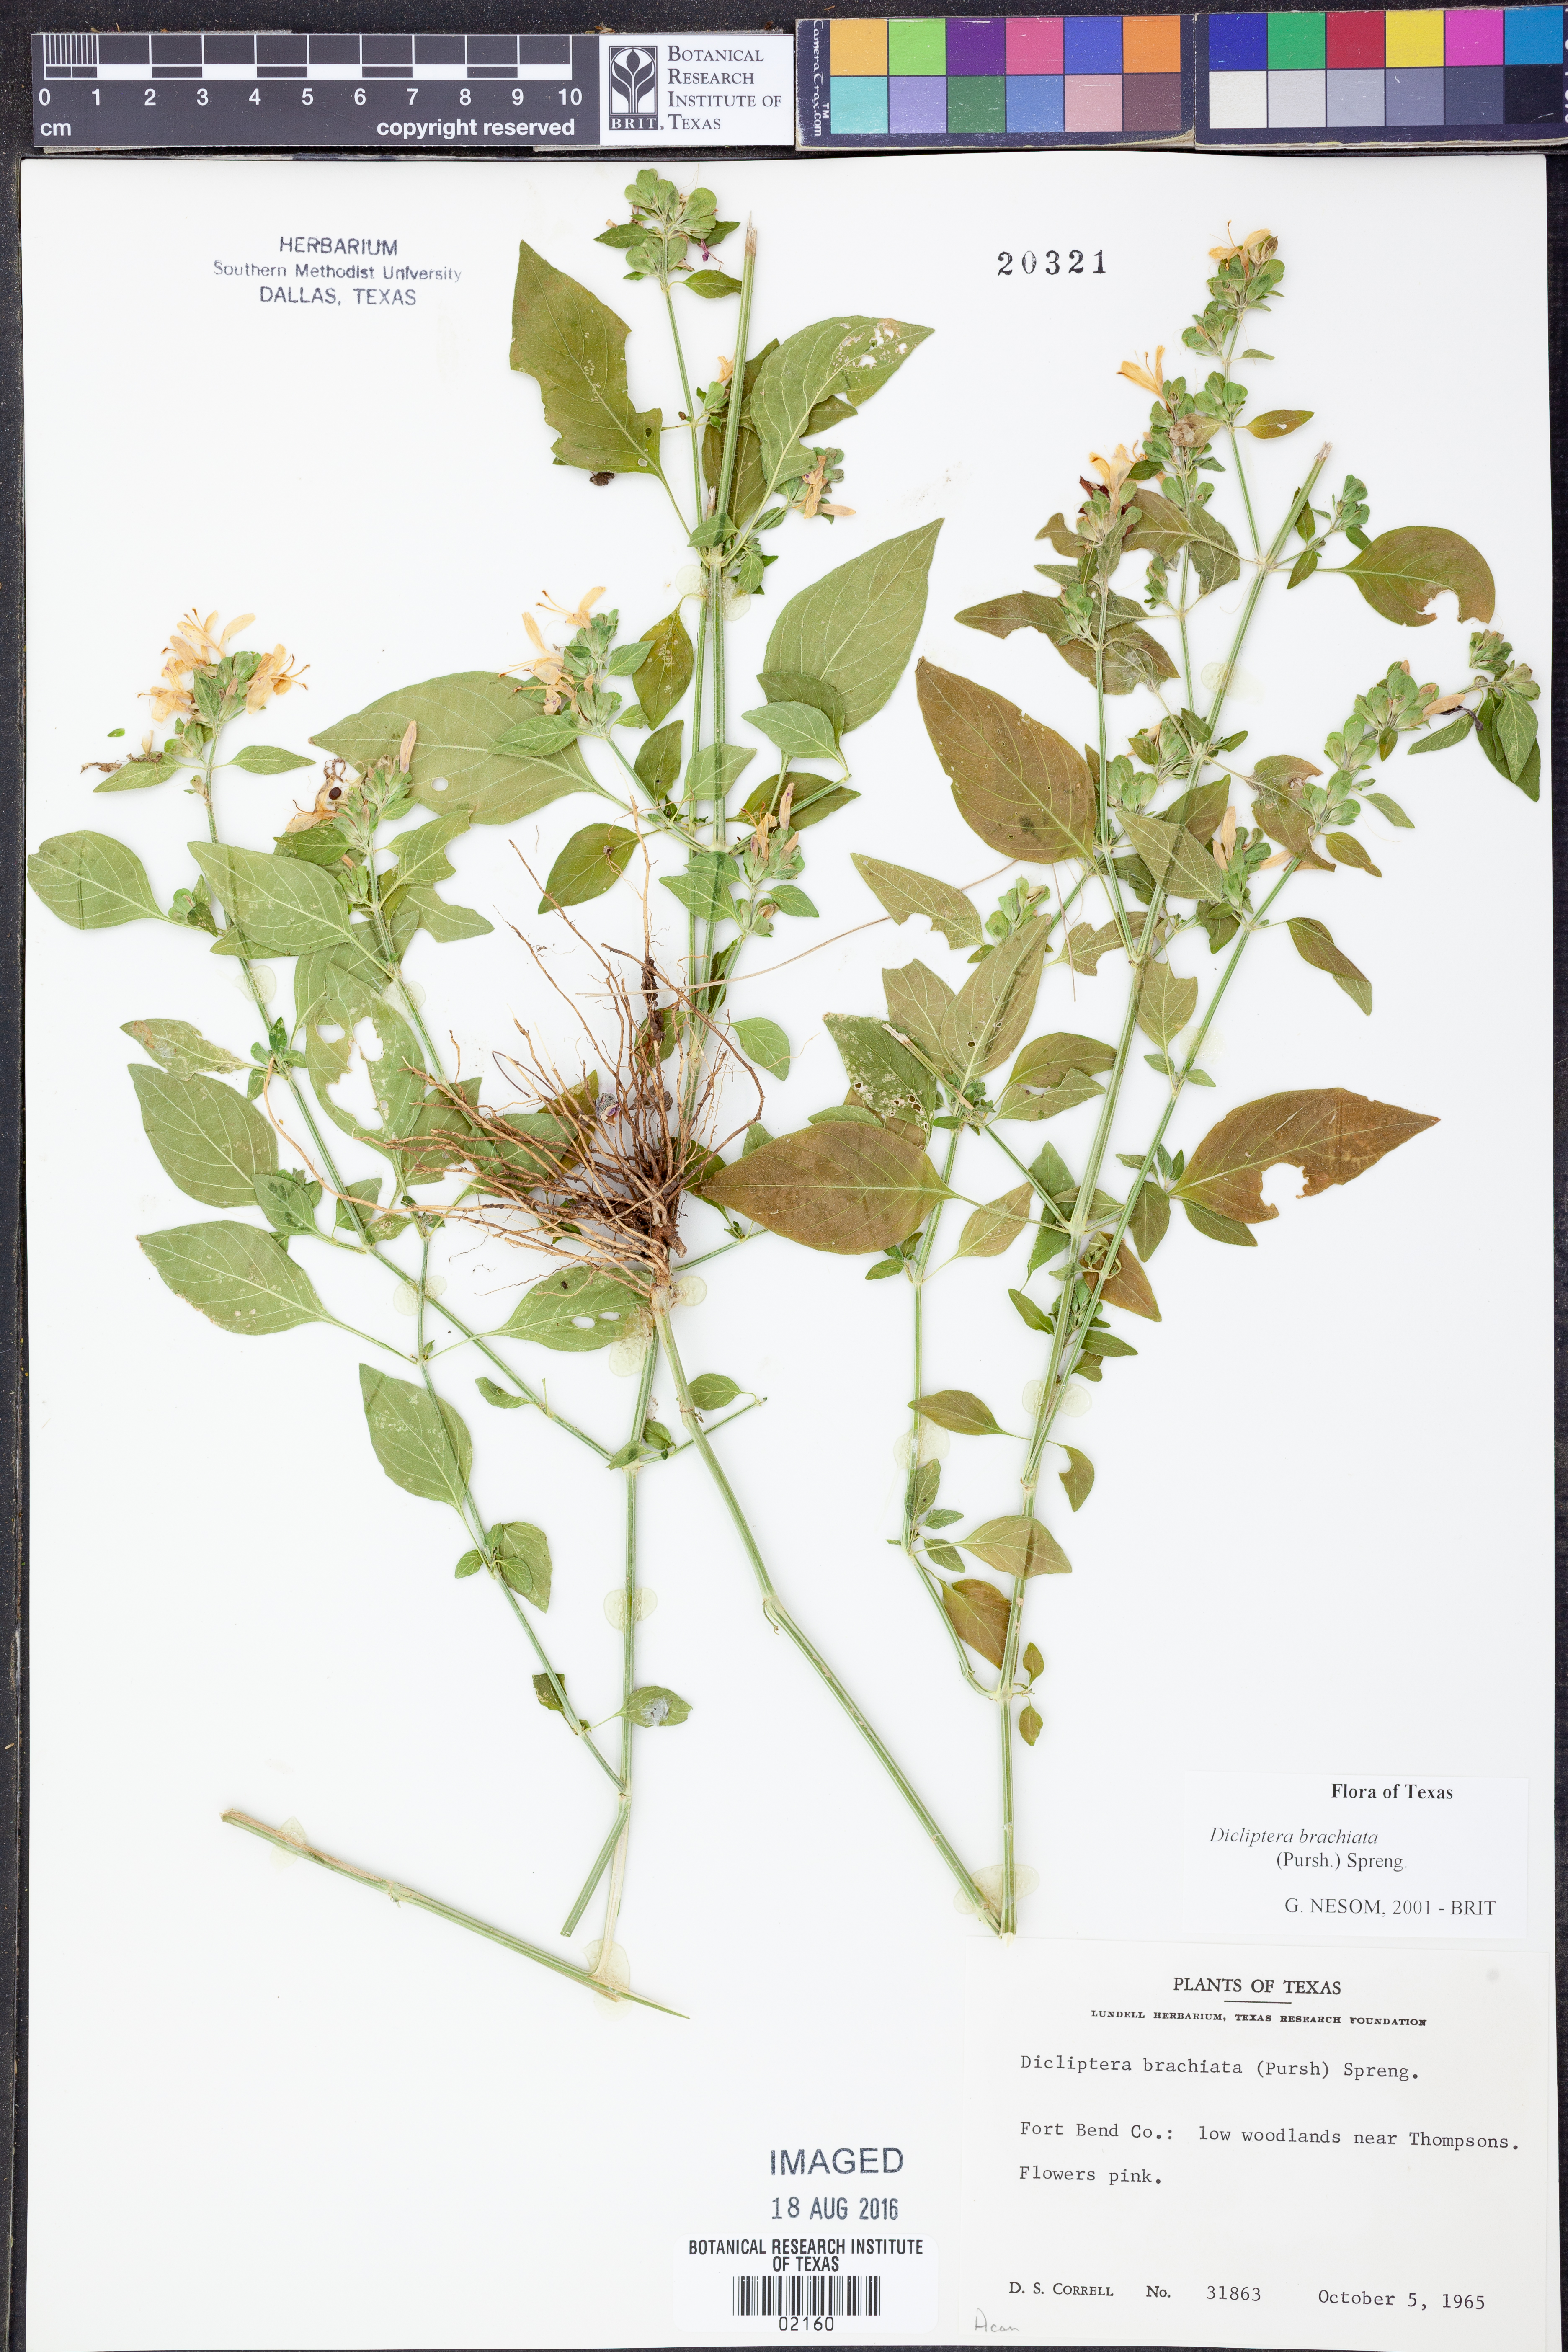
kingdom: Plantae
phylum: Tracheophyta
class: Magnoliopsida
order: Lamiales
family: Acanthaceae
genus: Dicliptera
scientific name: Dicliptera brachiata
